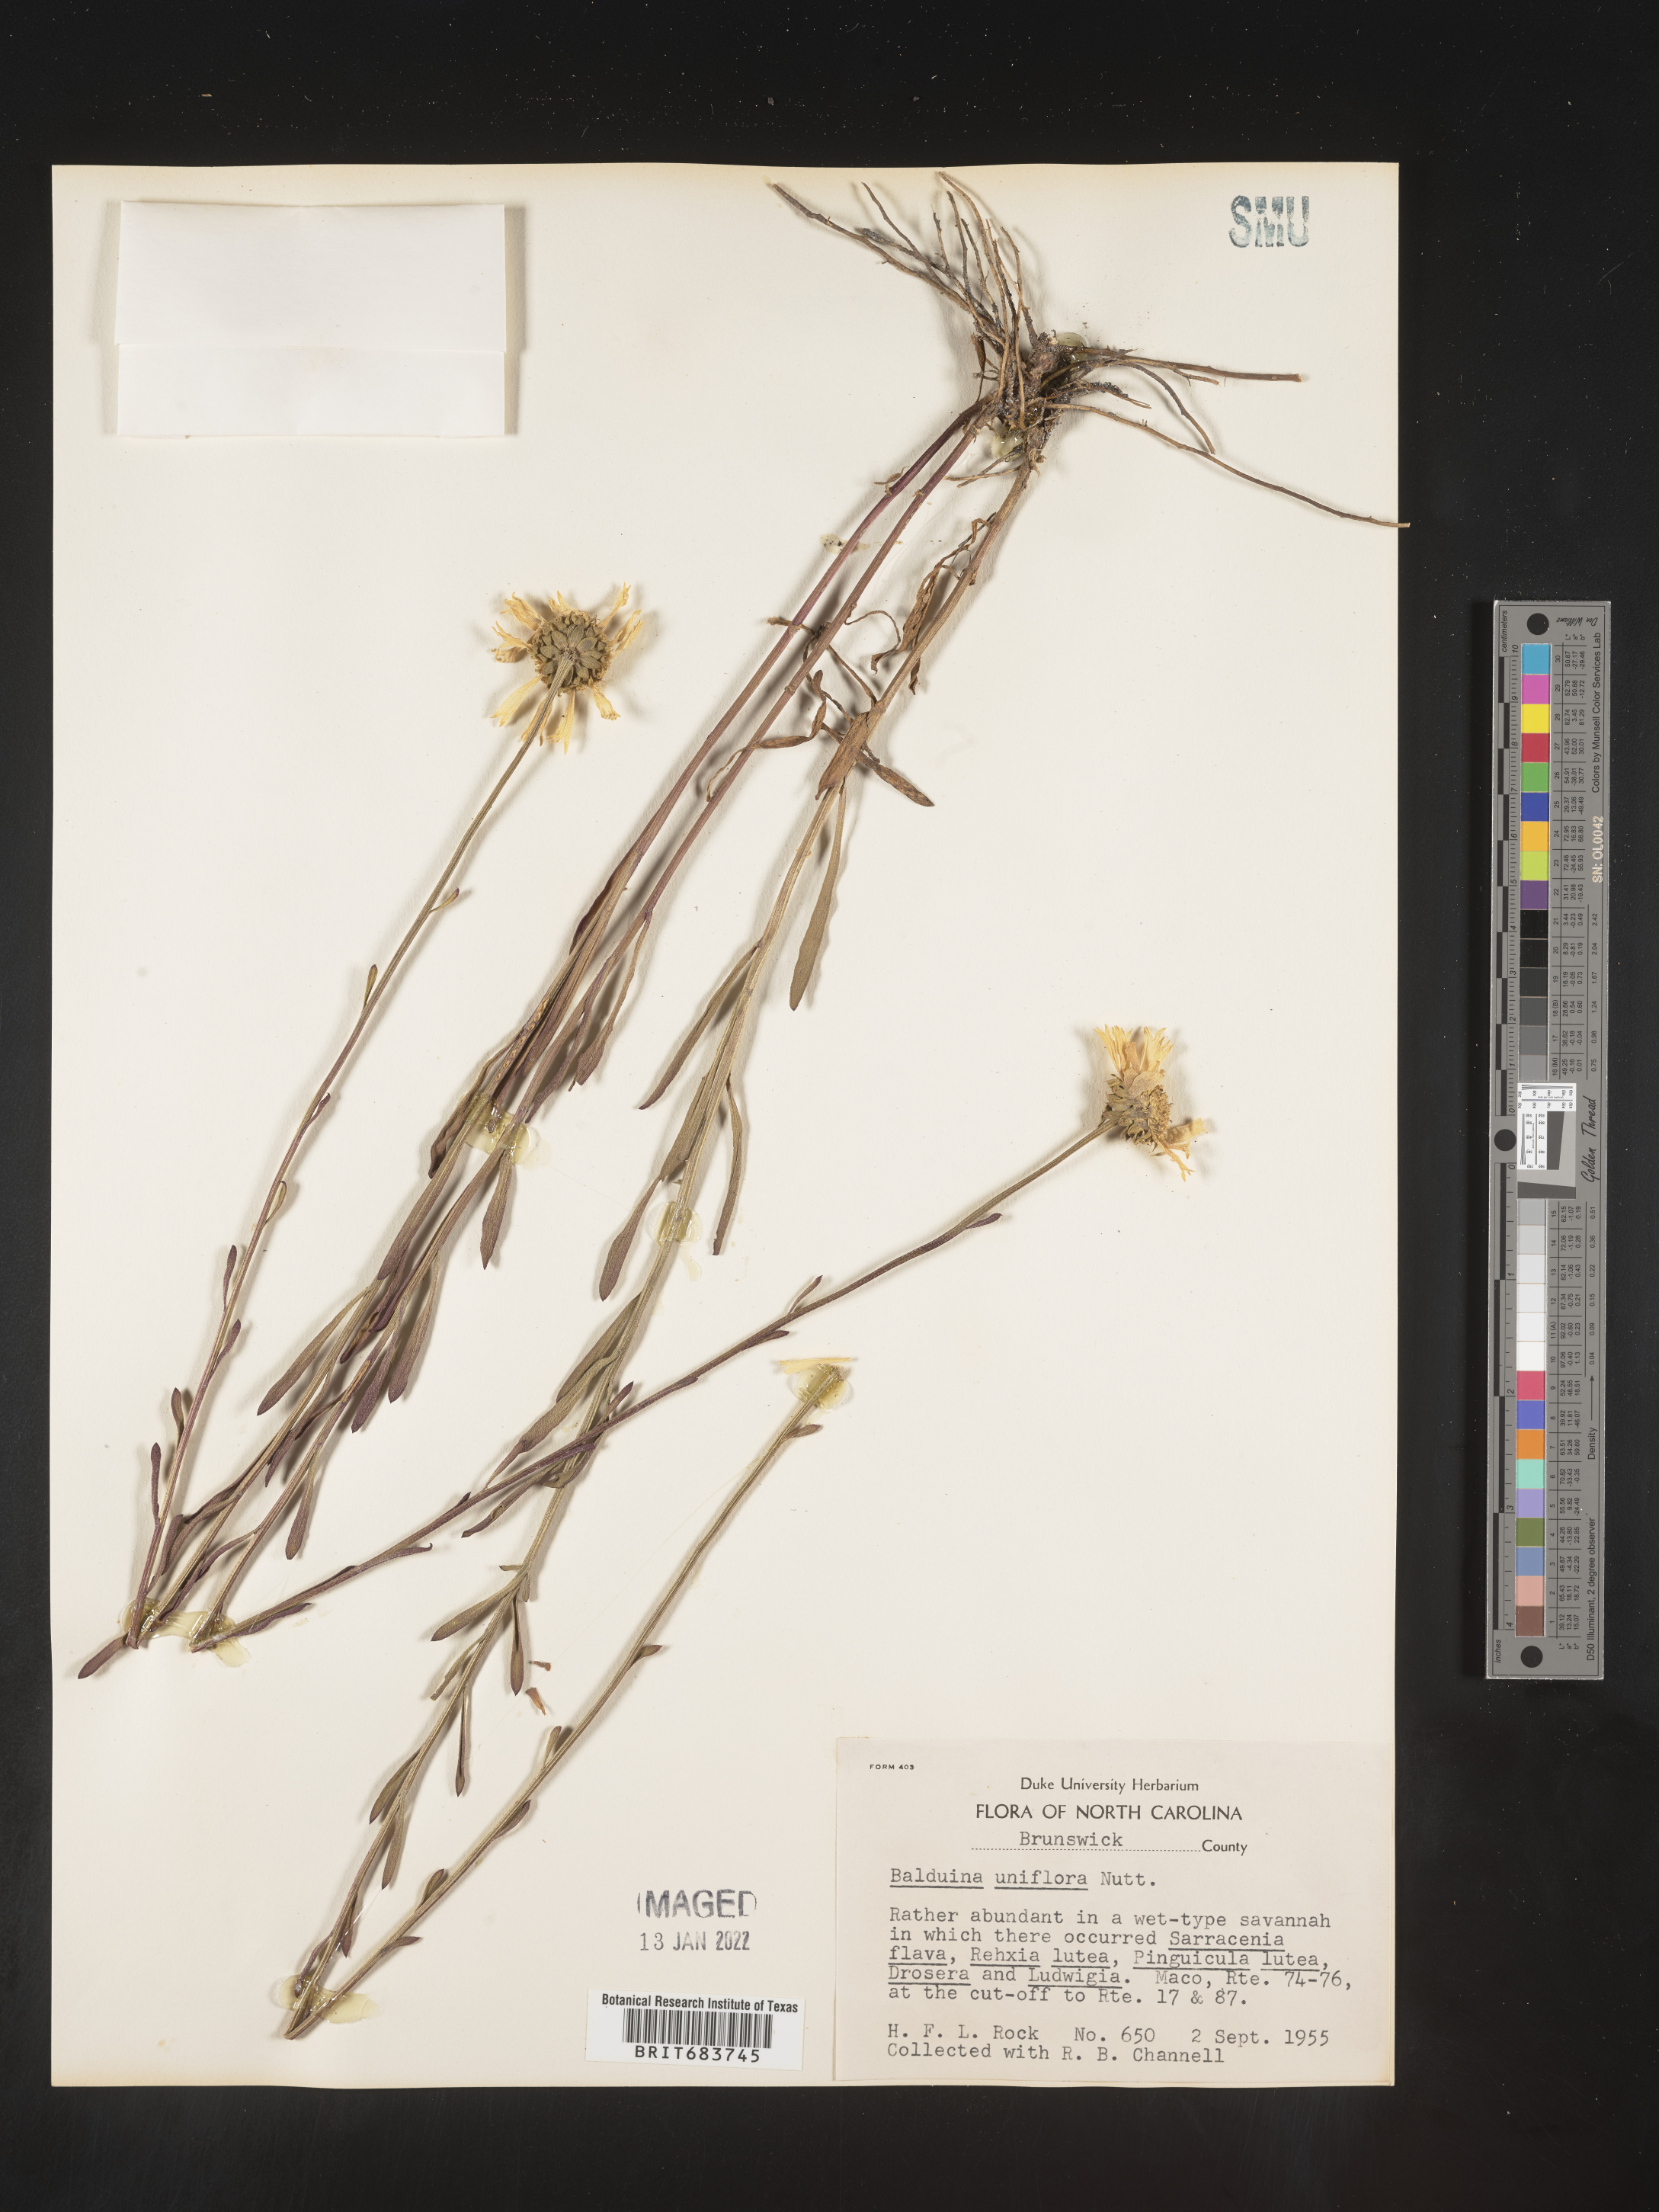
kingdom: Plantae
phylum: Tracheophyta
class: Magnoliopsida
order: Asterales
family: Asteraceae
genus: Balduina
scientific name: Balduina uniflora
